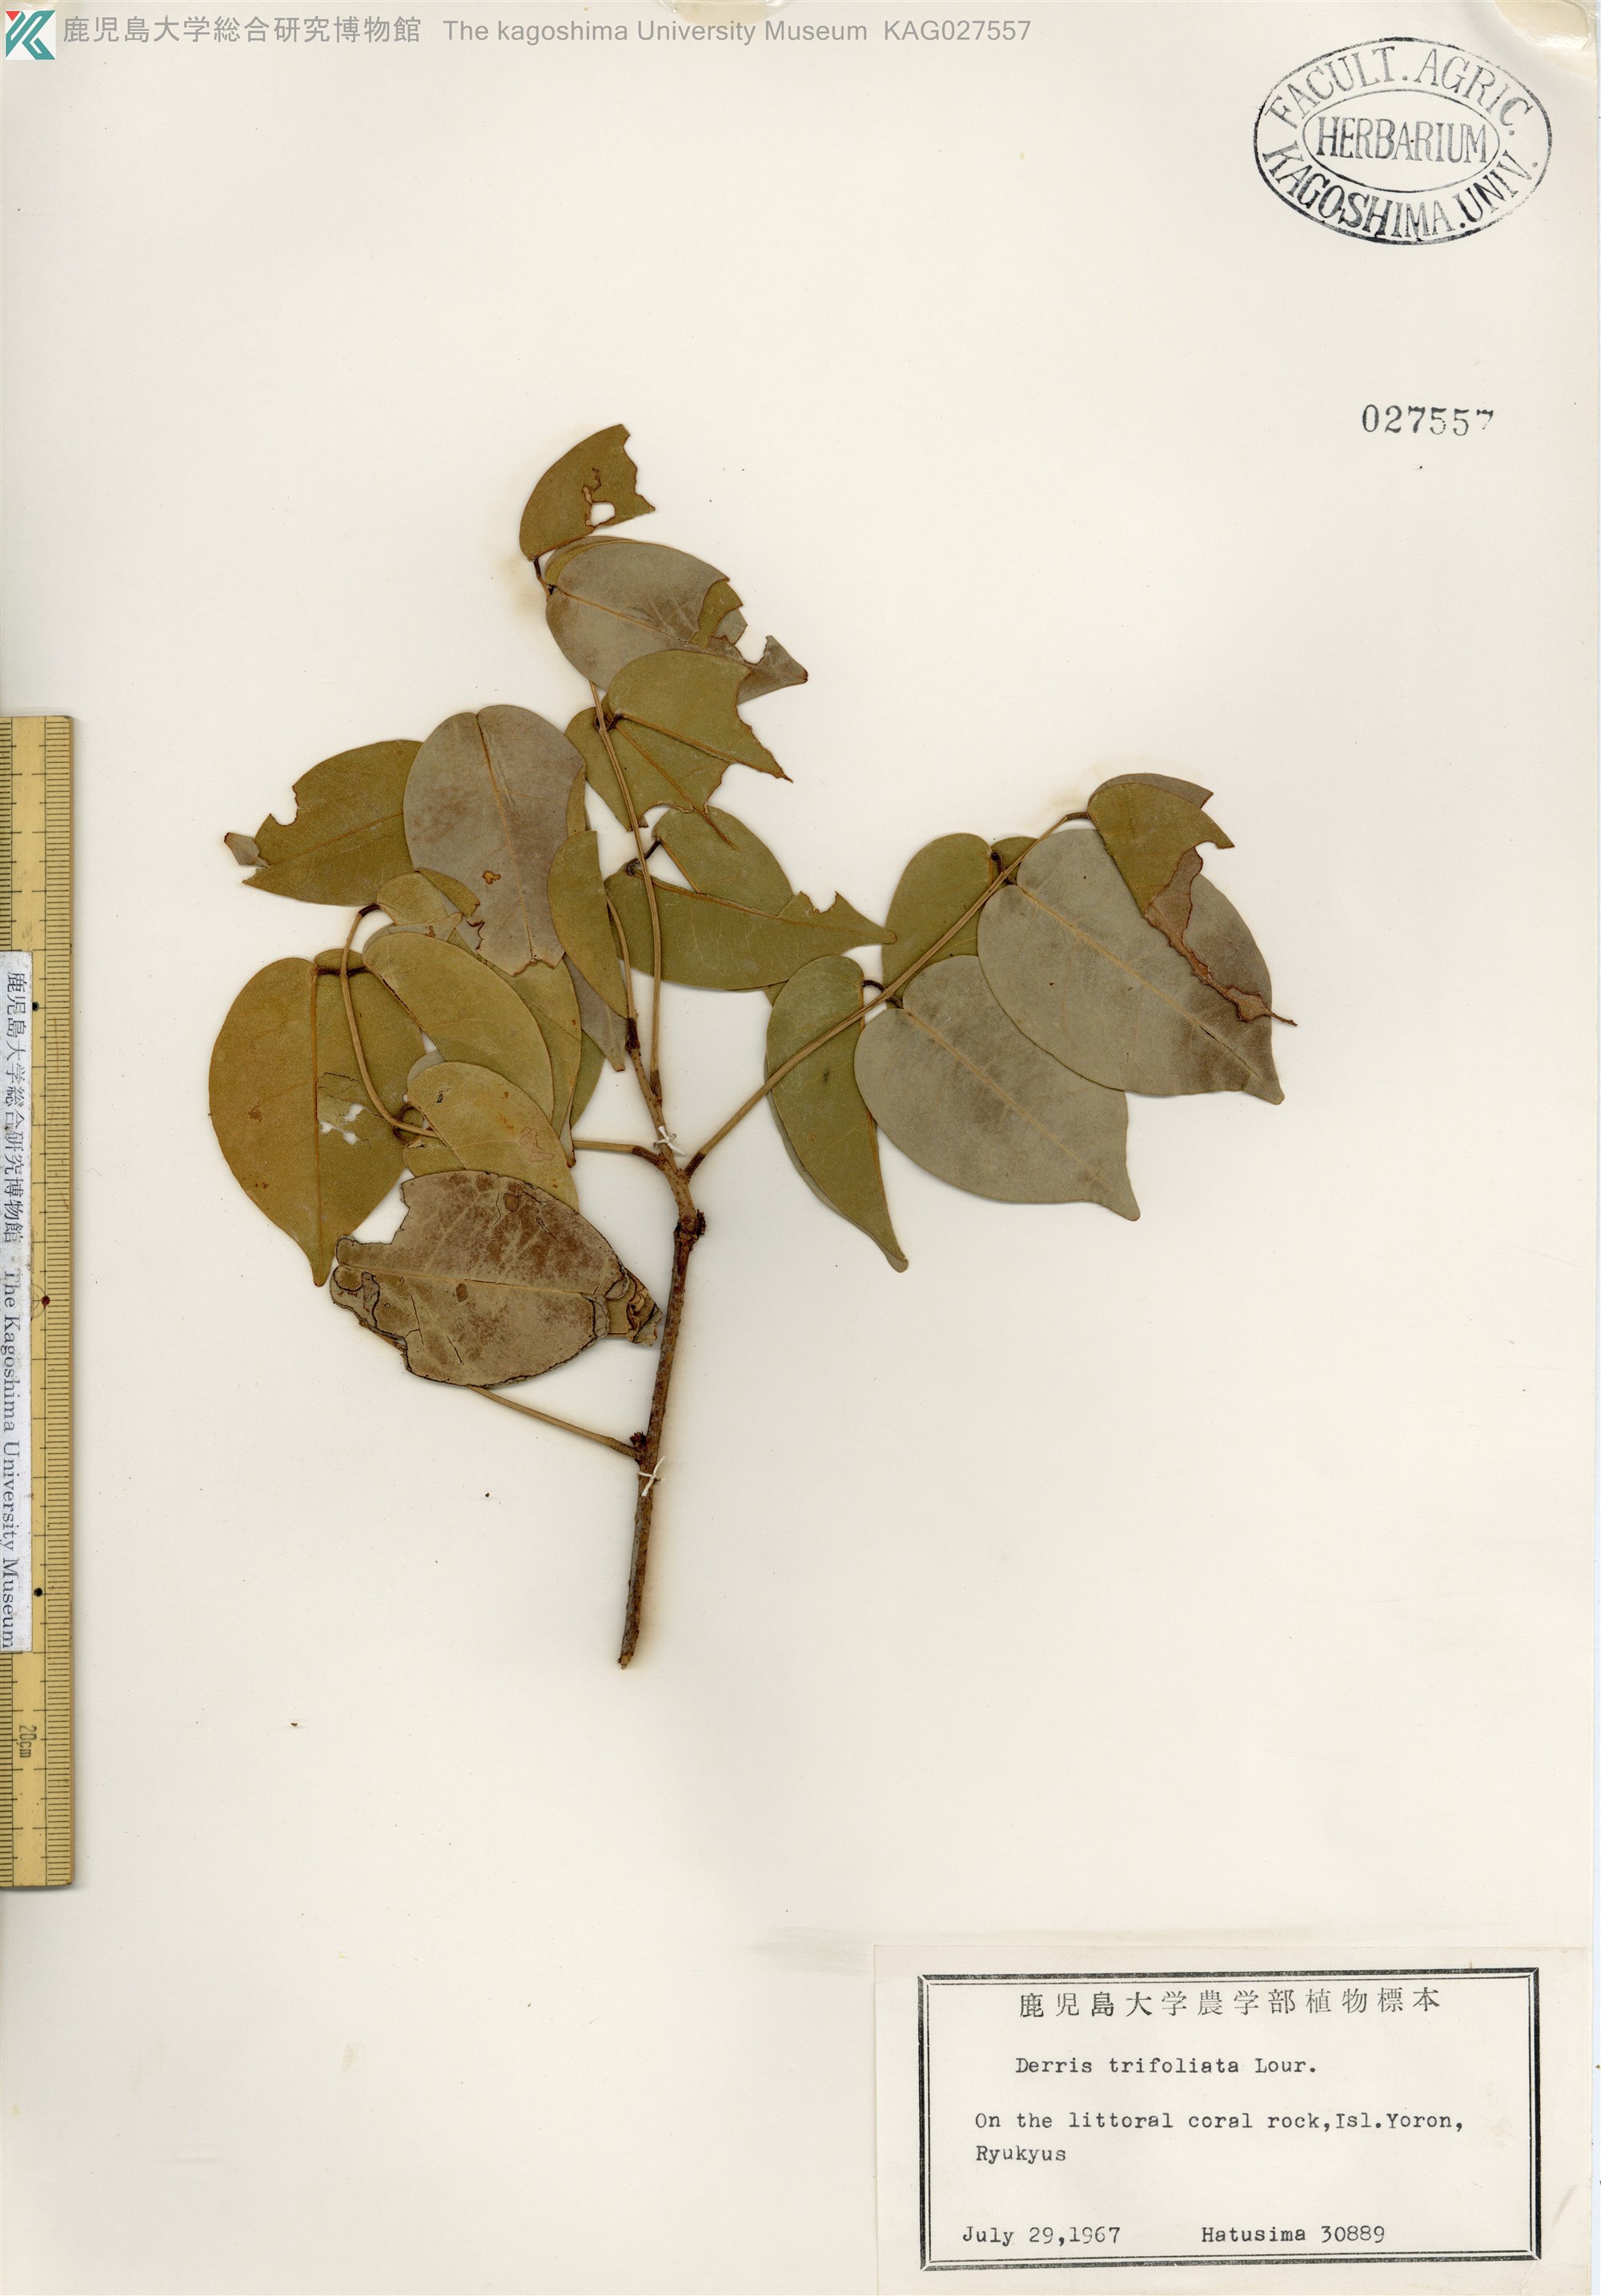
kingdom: Plantae
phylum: Tracheophyta
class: Magnoliopsida
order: Fabales
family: Fabaceae
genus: Derris
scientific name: Derris trifoliata
